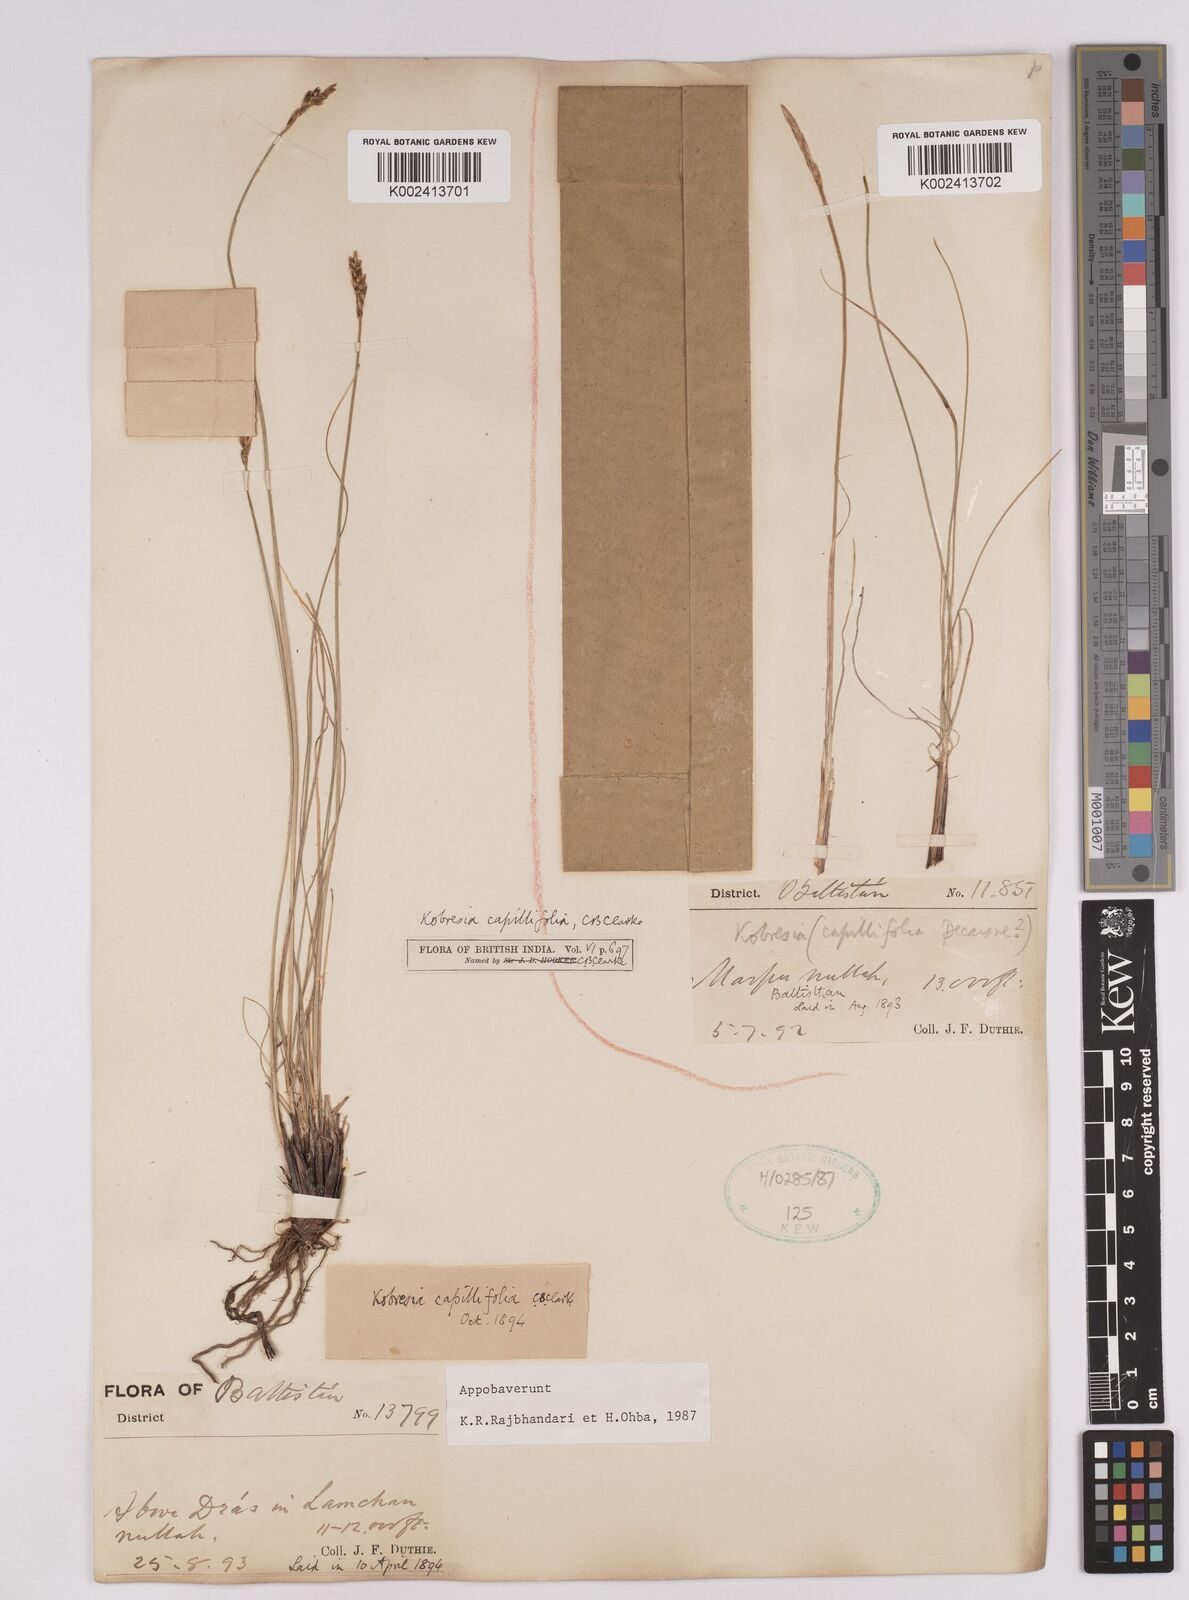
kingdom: Plantae
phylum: Tracheophyta
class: Liliopsida
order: Poales
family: Cyperaceae
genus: Carex
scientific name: Carex capillifolia
